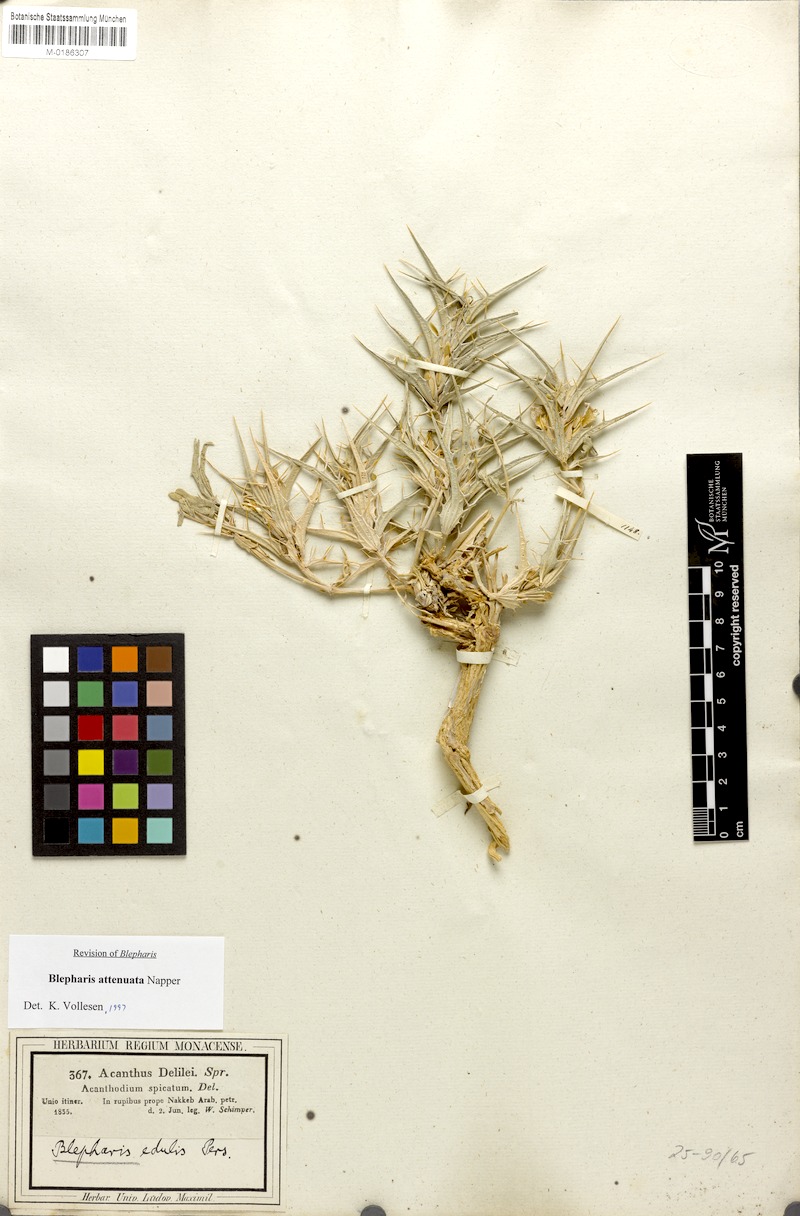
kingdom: Plantae
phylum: Tracheophyta
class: Magnoliopsida
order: Lamiales
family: Acanthaceae
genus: Blepharis
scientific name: Blepharis attenuata
